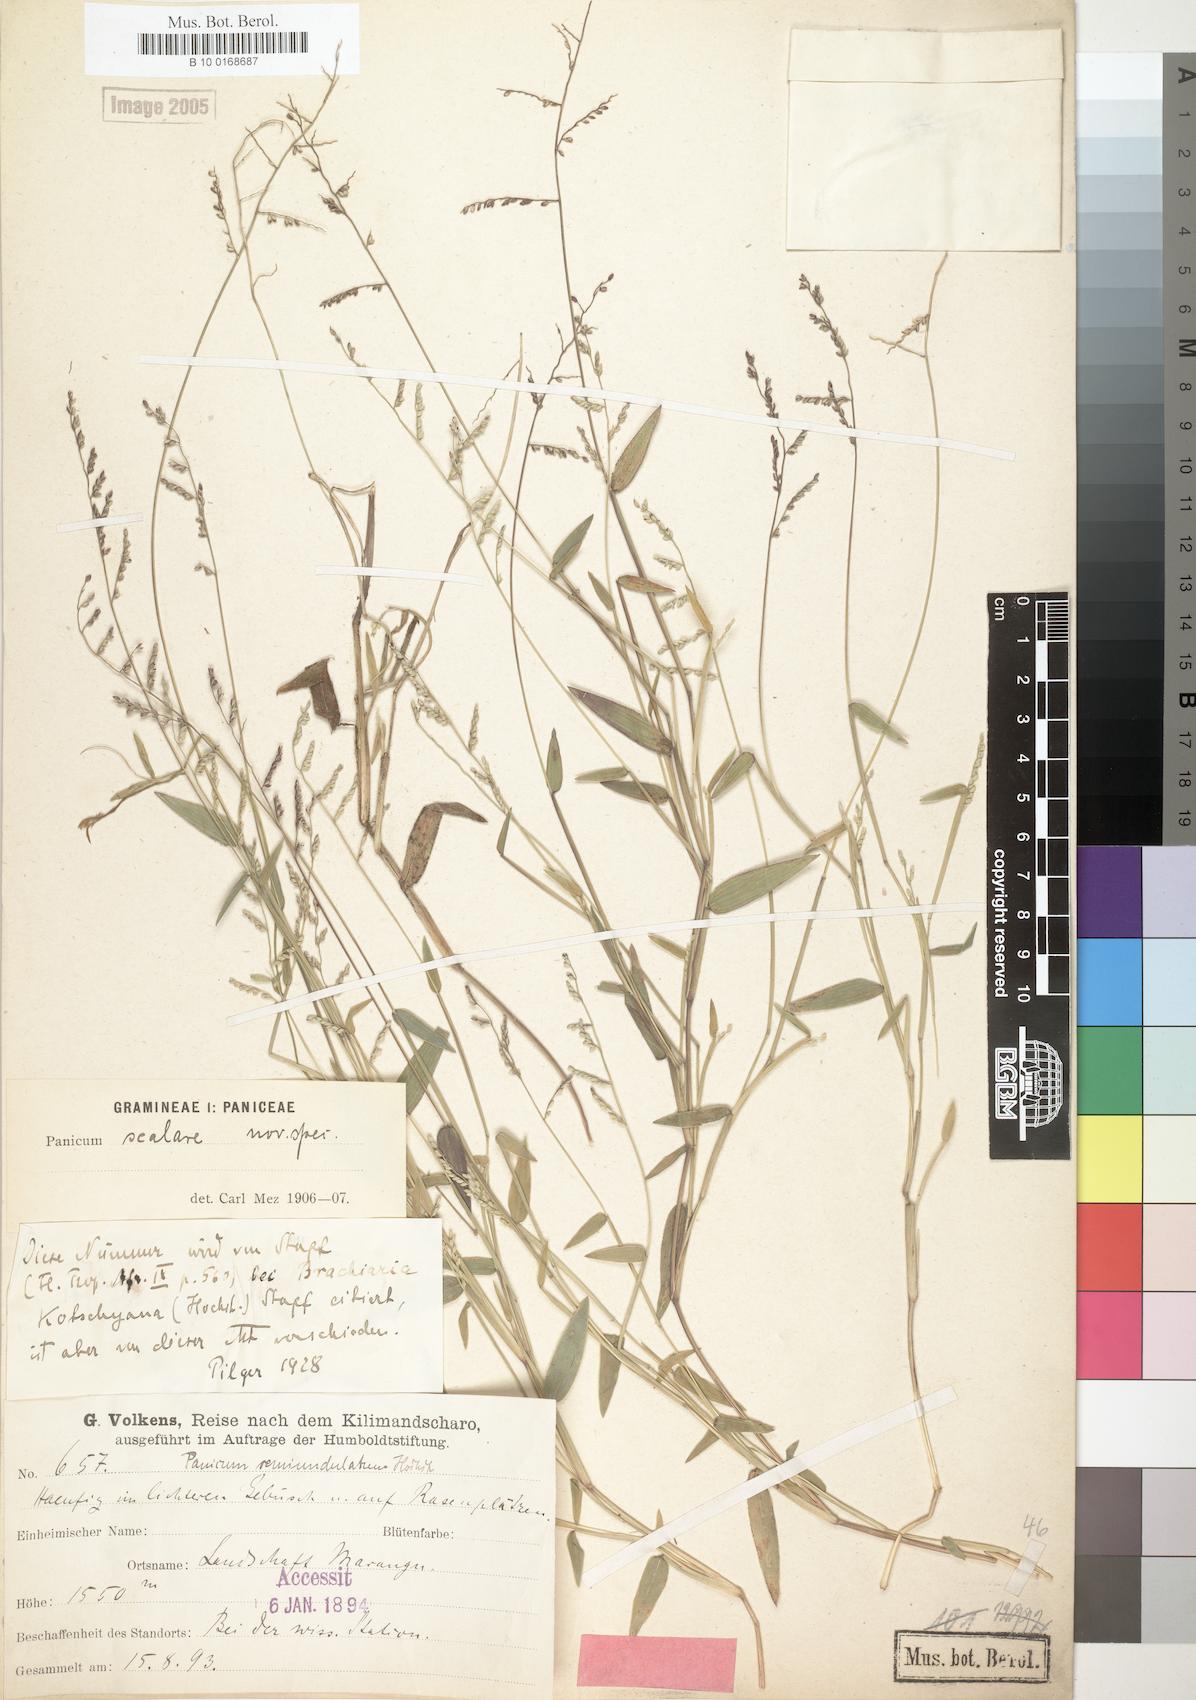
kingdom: Plantae
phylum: Tracheophyta
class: Liliopsida
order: Poales
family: Poaceae
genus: Urochloa
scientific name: Urochloa comata
